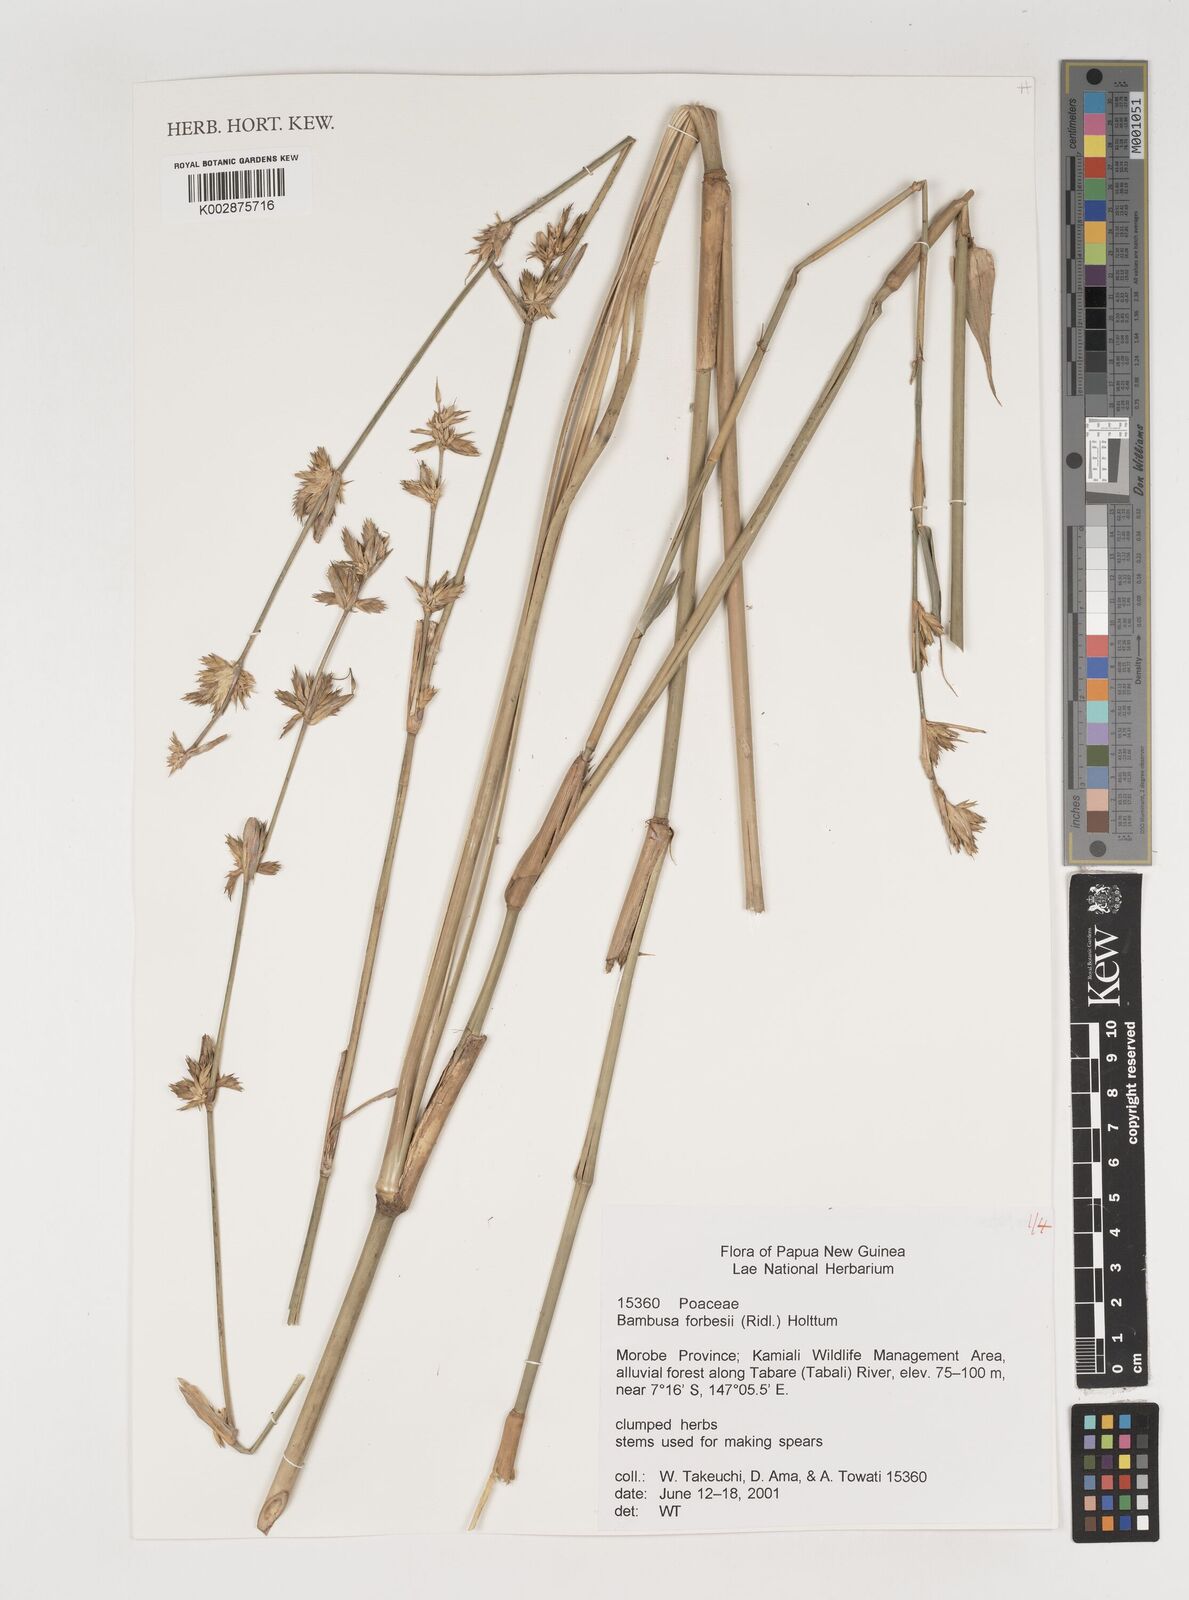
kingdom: Plantae
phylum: Tracheophyta
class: Liliopsida
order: Poales
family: Poaceae
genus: Neololeba
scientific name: Neololeba atra
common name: Cape bamboo
